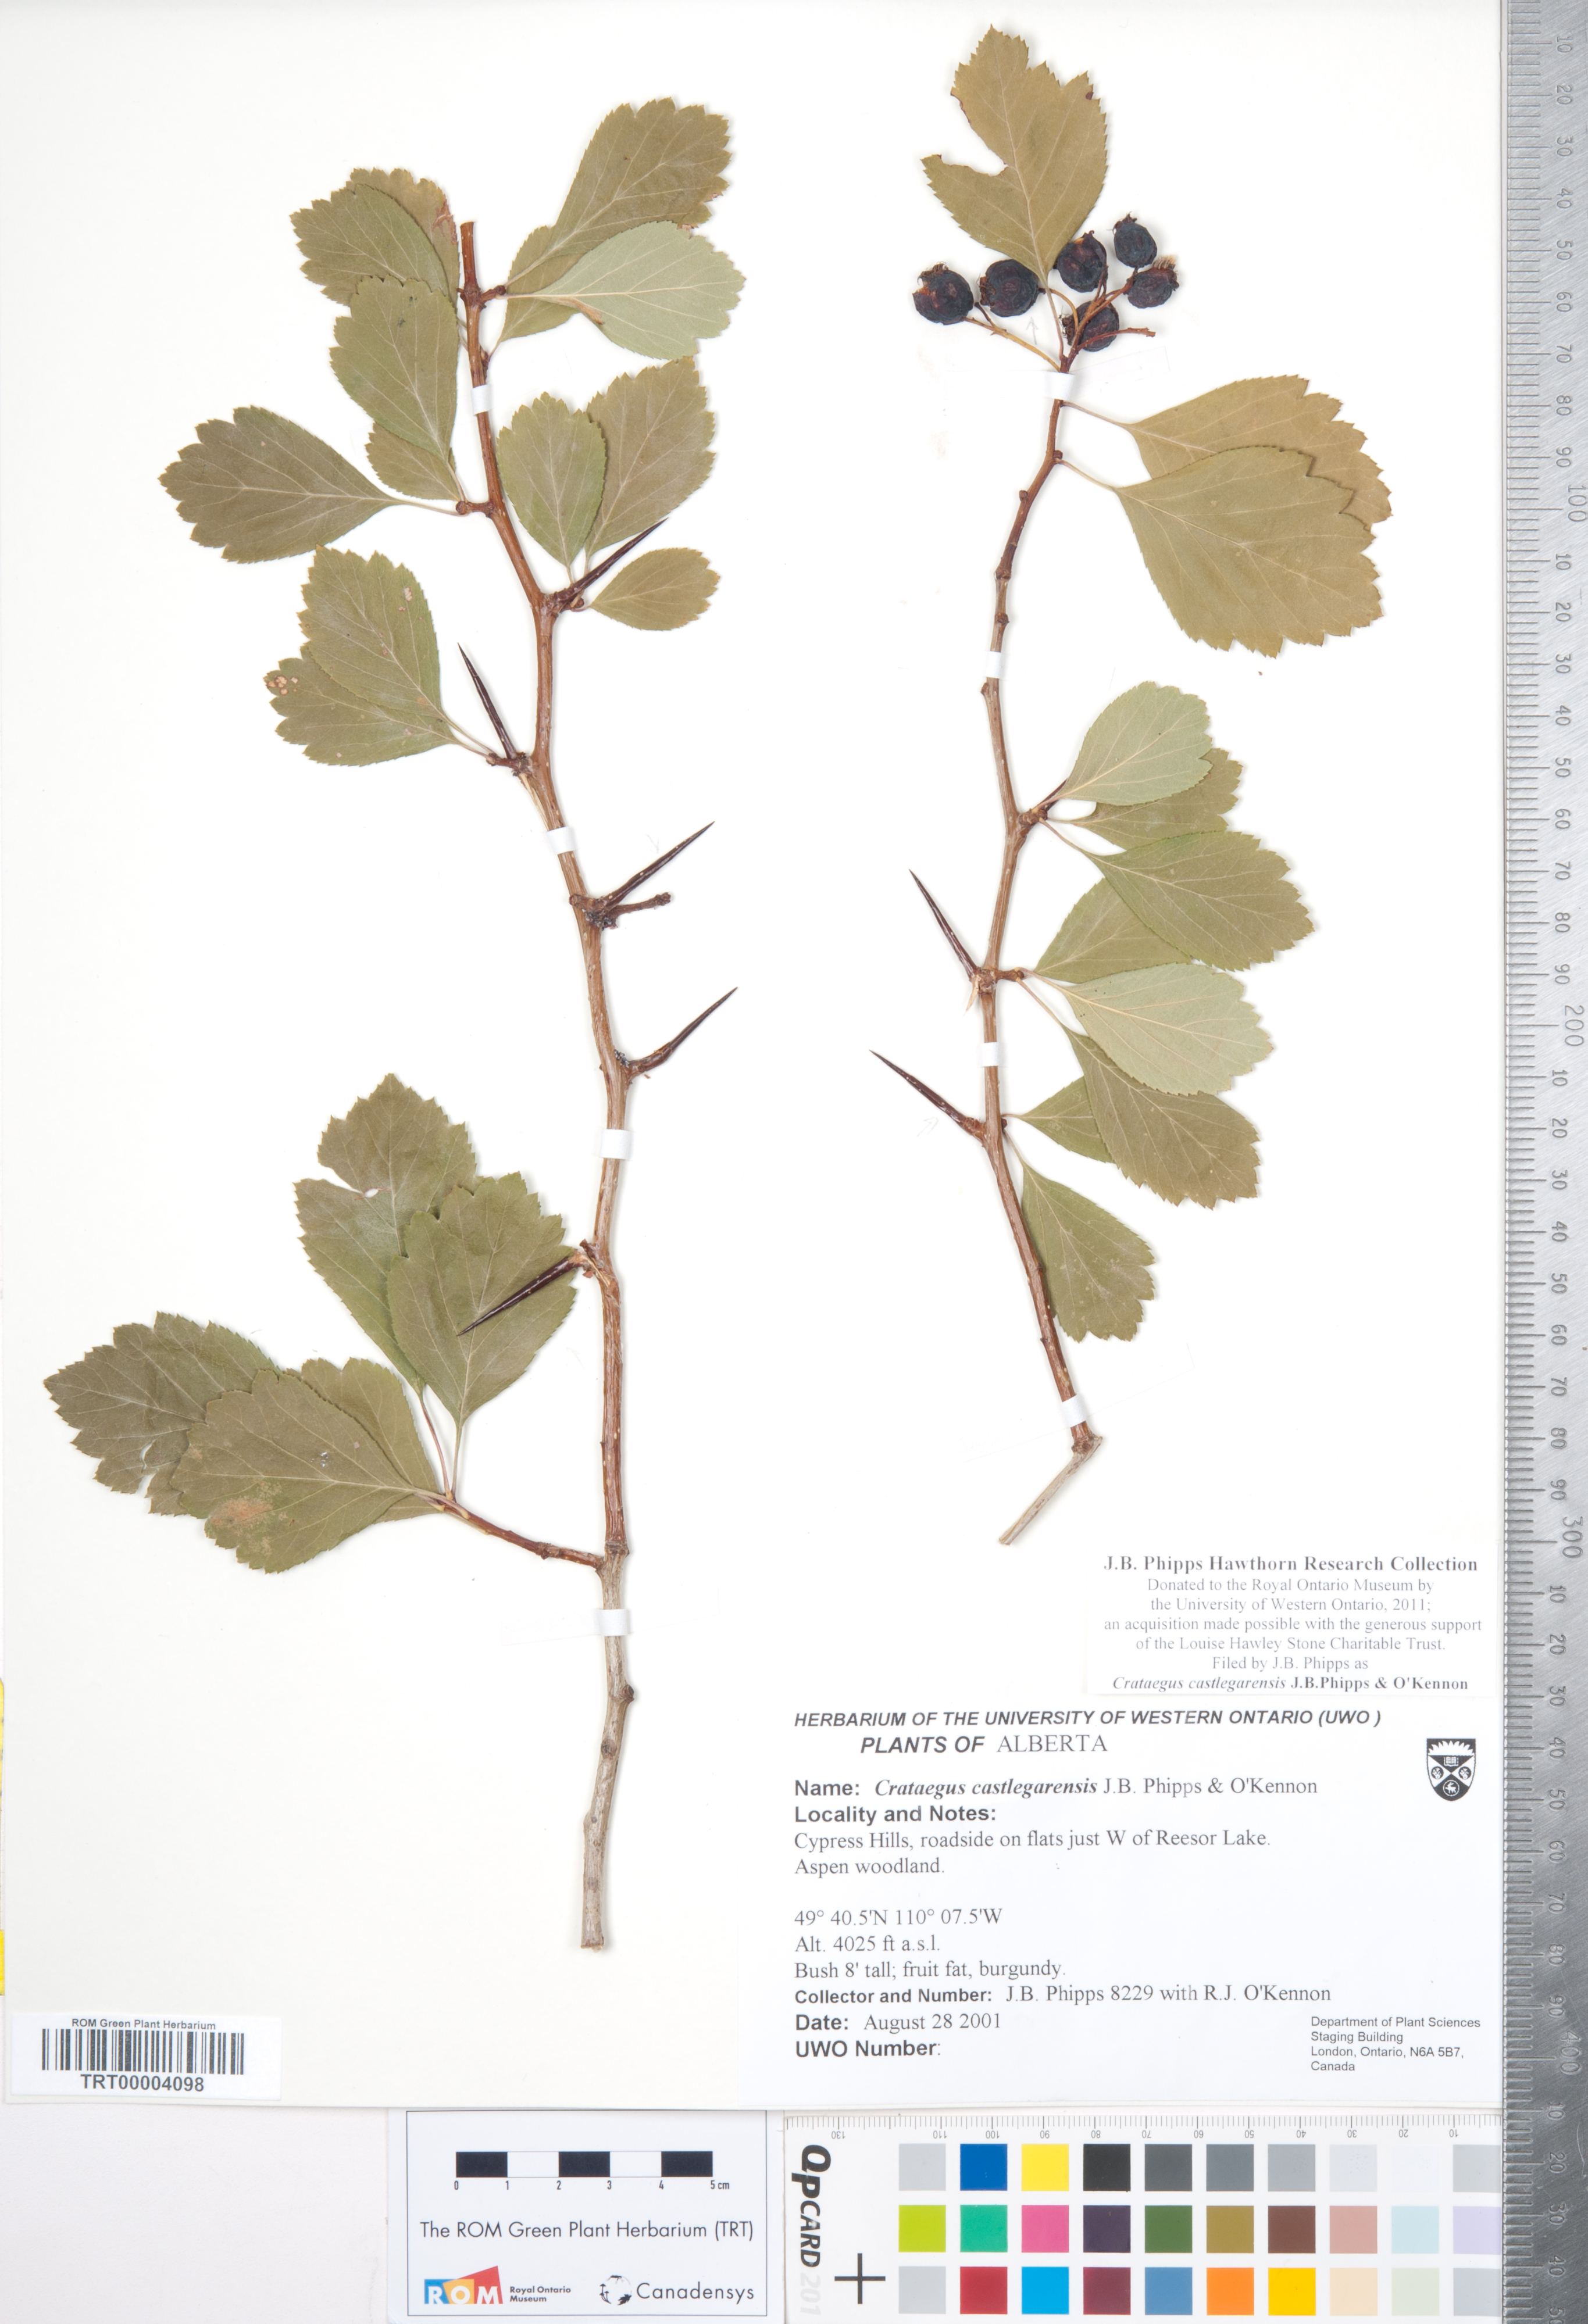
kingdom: Plantae
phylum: Tracheophyta
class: Magnoliopsida
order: Rosales
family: Rosaceae
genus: Crataegus
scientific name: Crataegus castlegarensis
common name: Castlegar hawthorn
